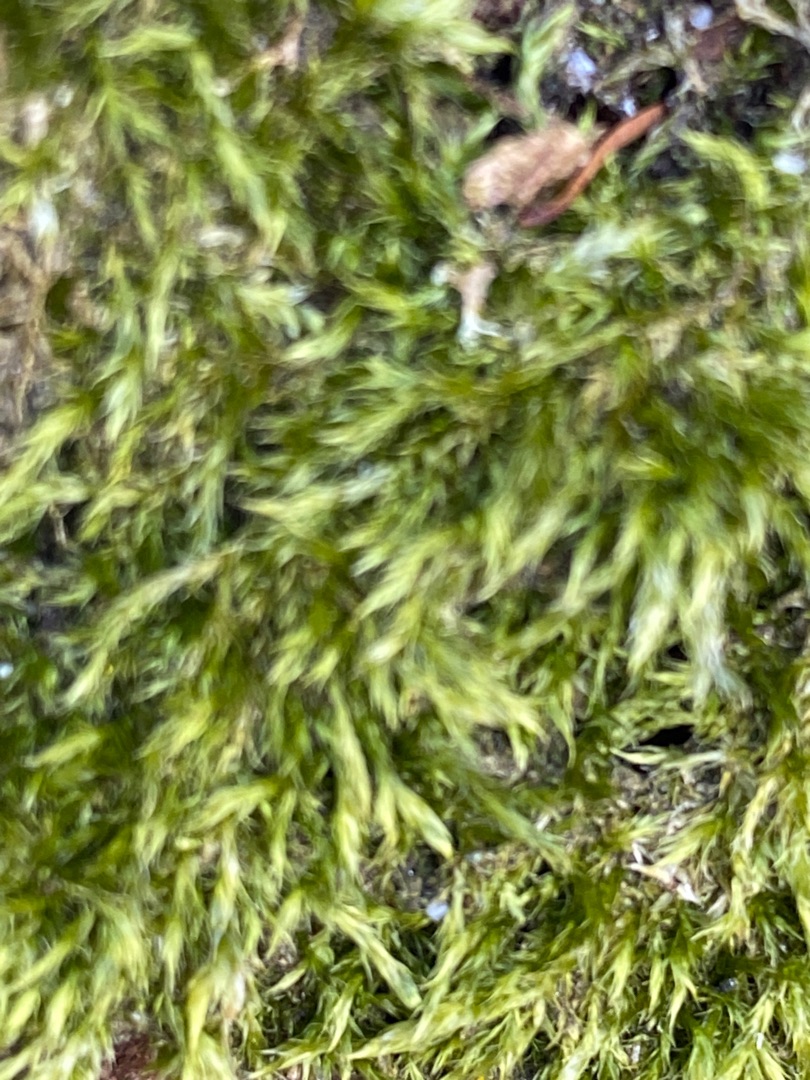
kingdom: Plantae
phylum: Bryophyta
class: Bryopsida
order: Hypnales
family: Hypnaceae
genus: Hypnum
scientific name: Hypnum
